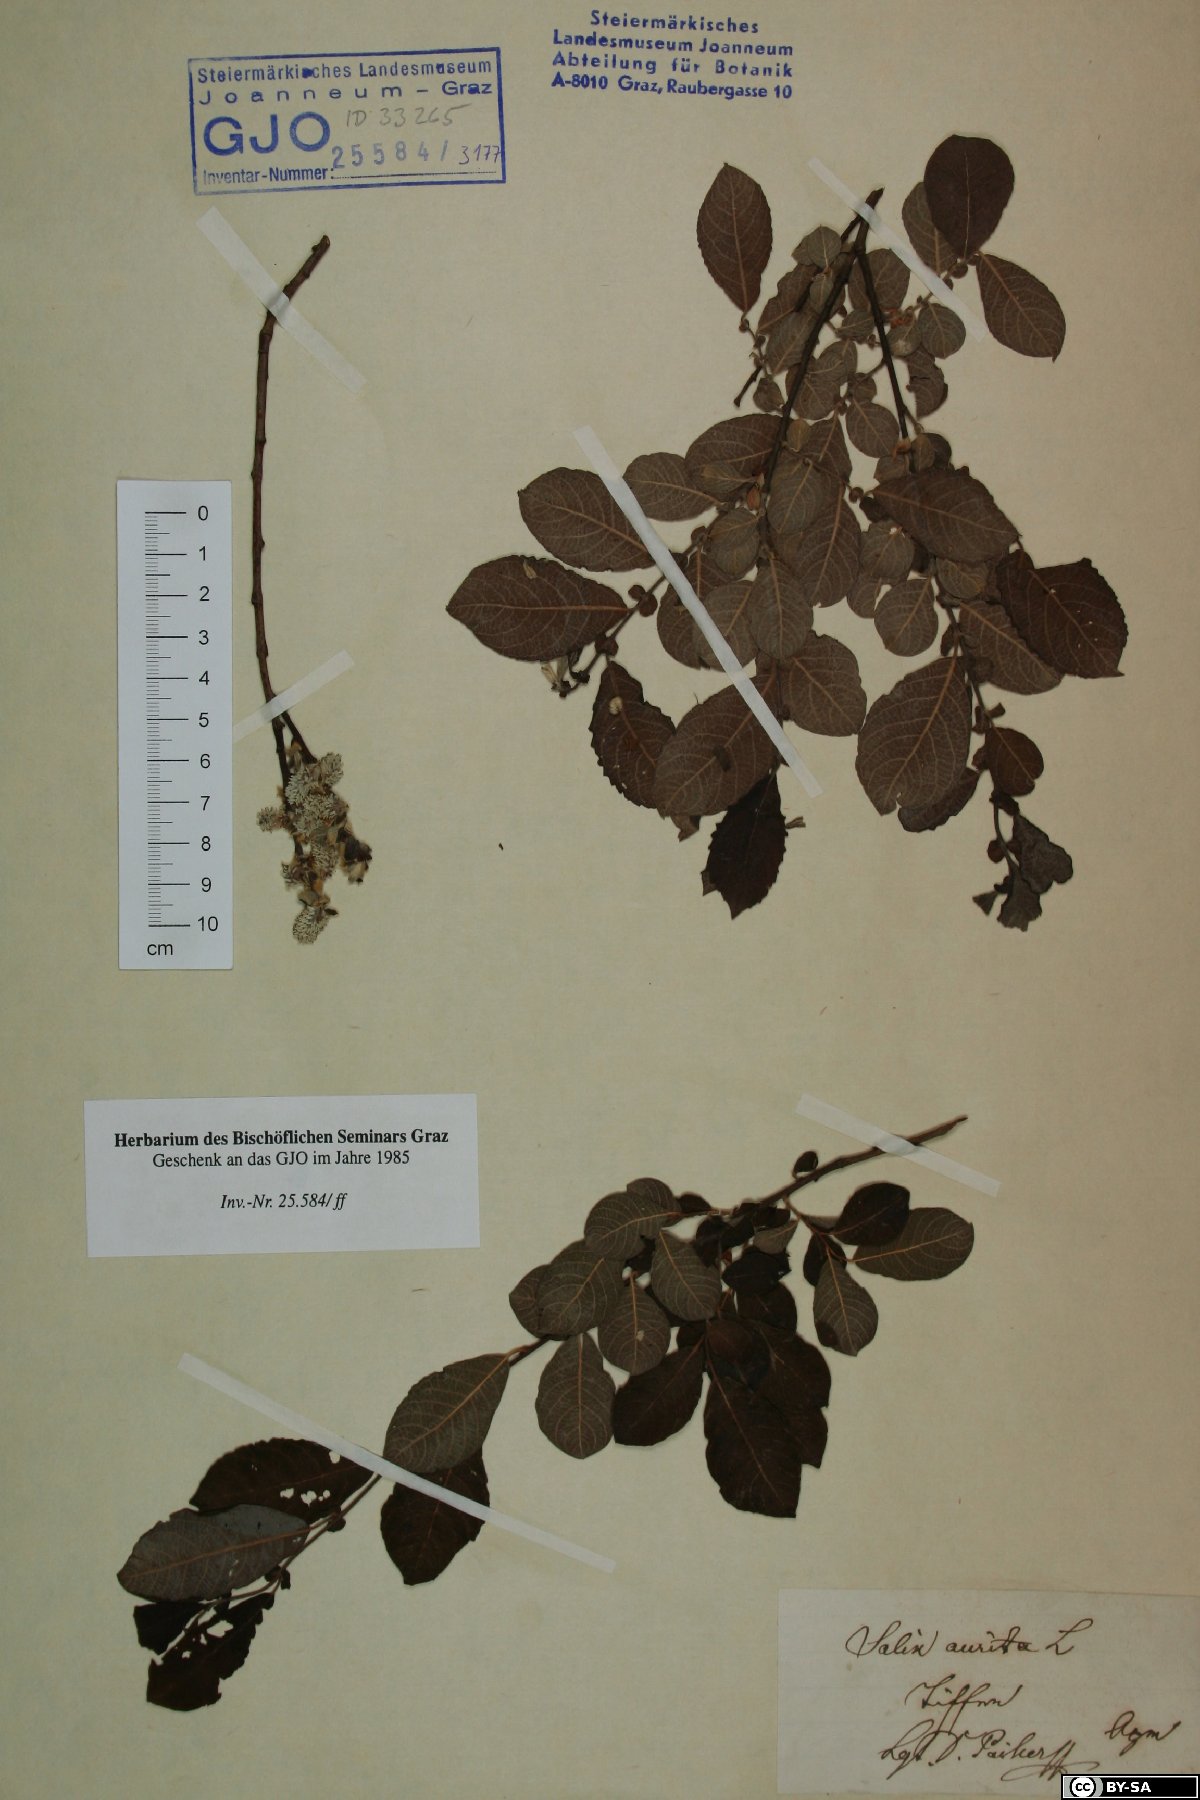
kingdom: Plantae
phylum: Tracheophyta
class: Magnoliopsida
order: Malpighiales
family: Salicaceae
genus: Salix
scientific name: Salix aurita
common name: Eared willow
